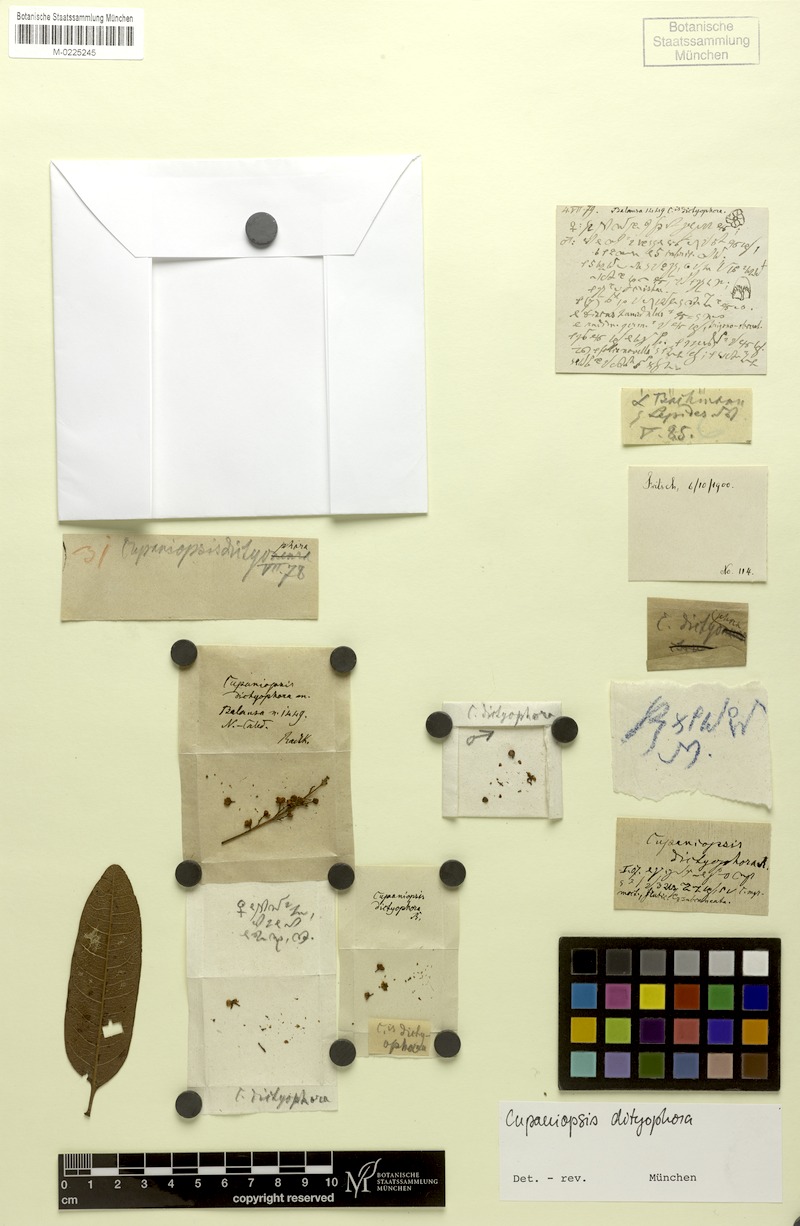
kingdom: Plantae
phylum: Tracheophyta
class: Magnoliopsida
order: Sapindales
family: Sapindaceae
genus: Lepidocupania
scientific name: Lepidocupania fruticosa
